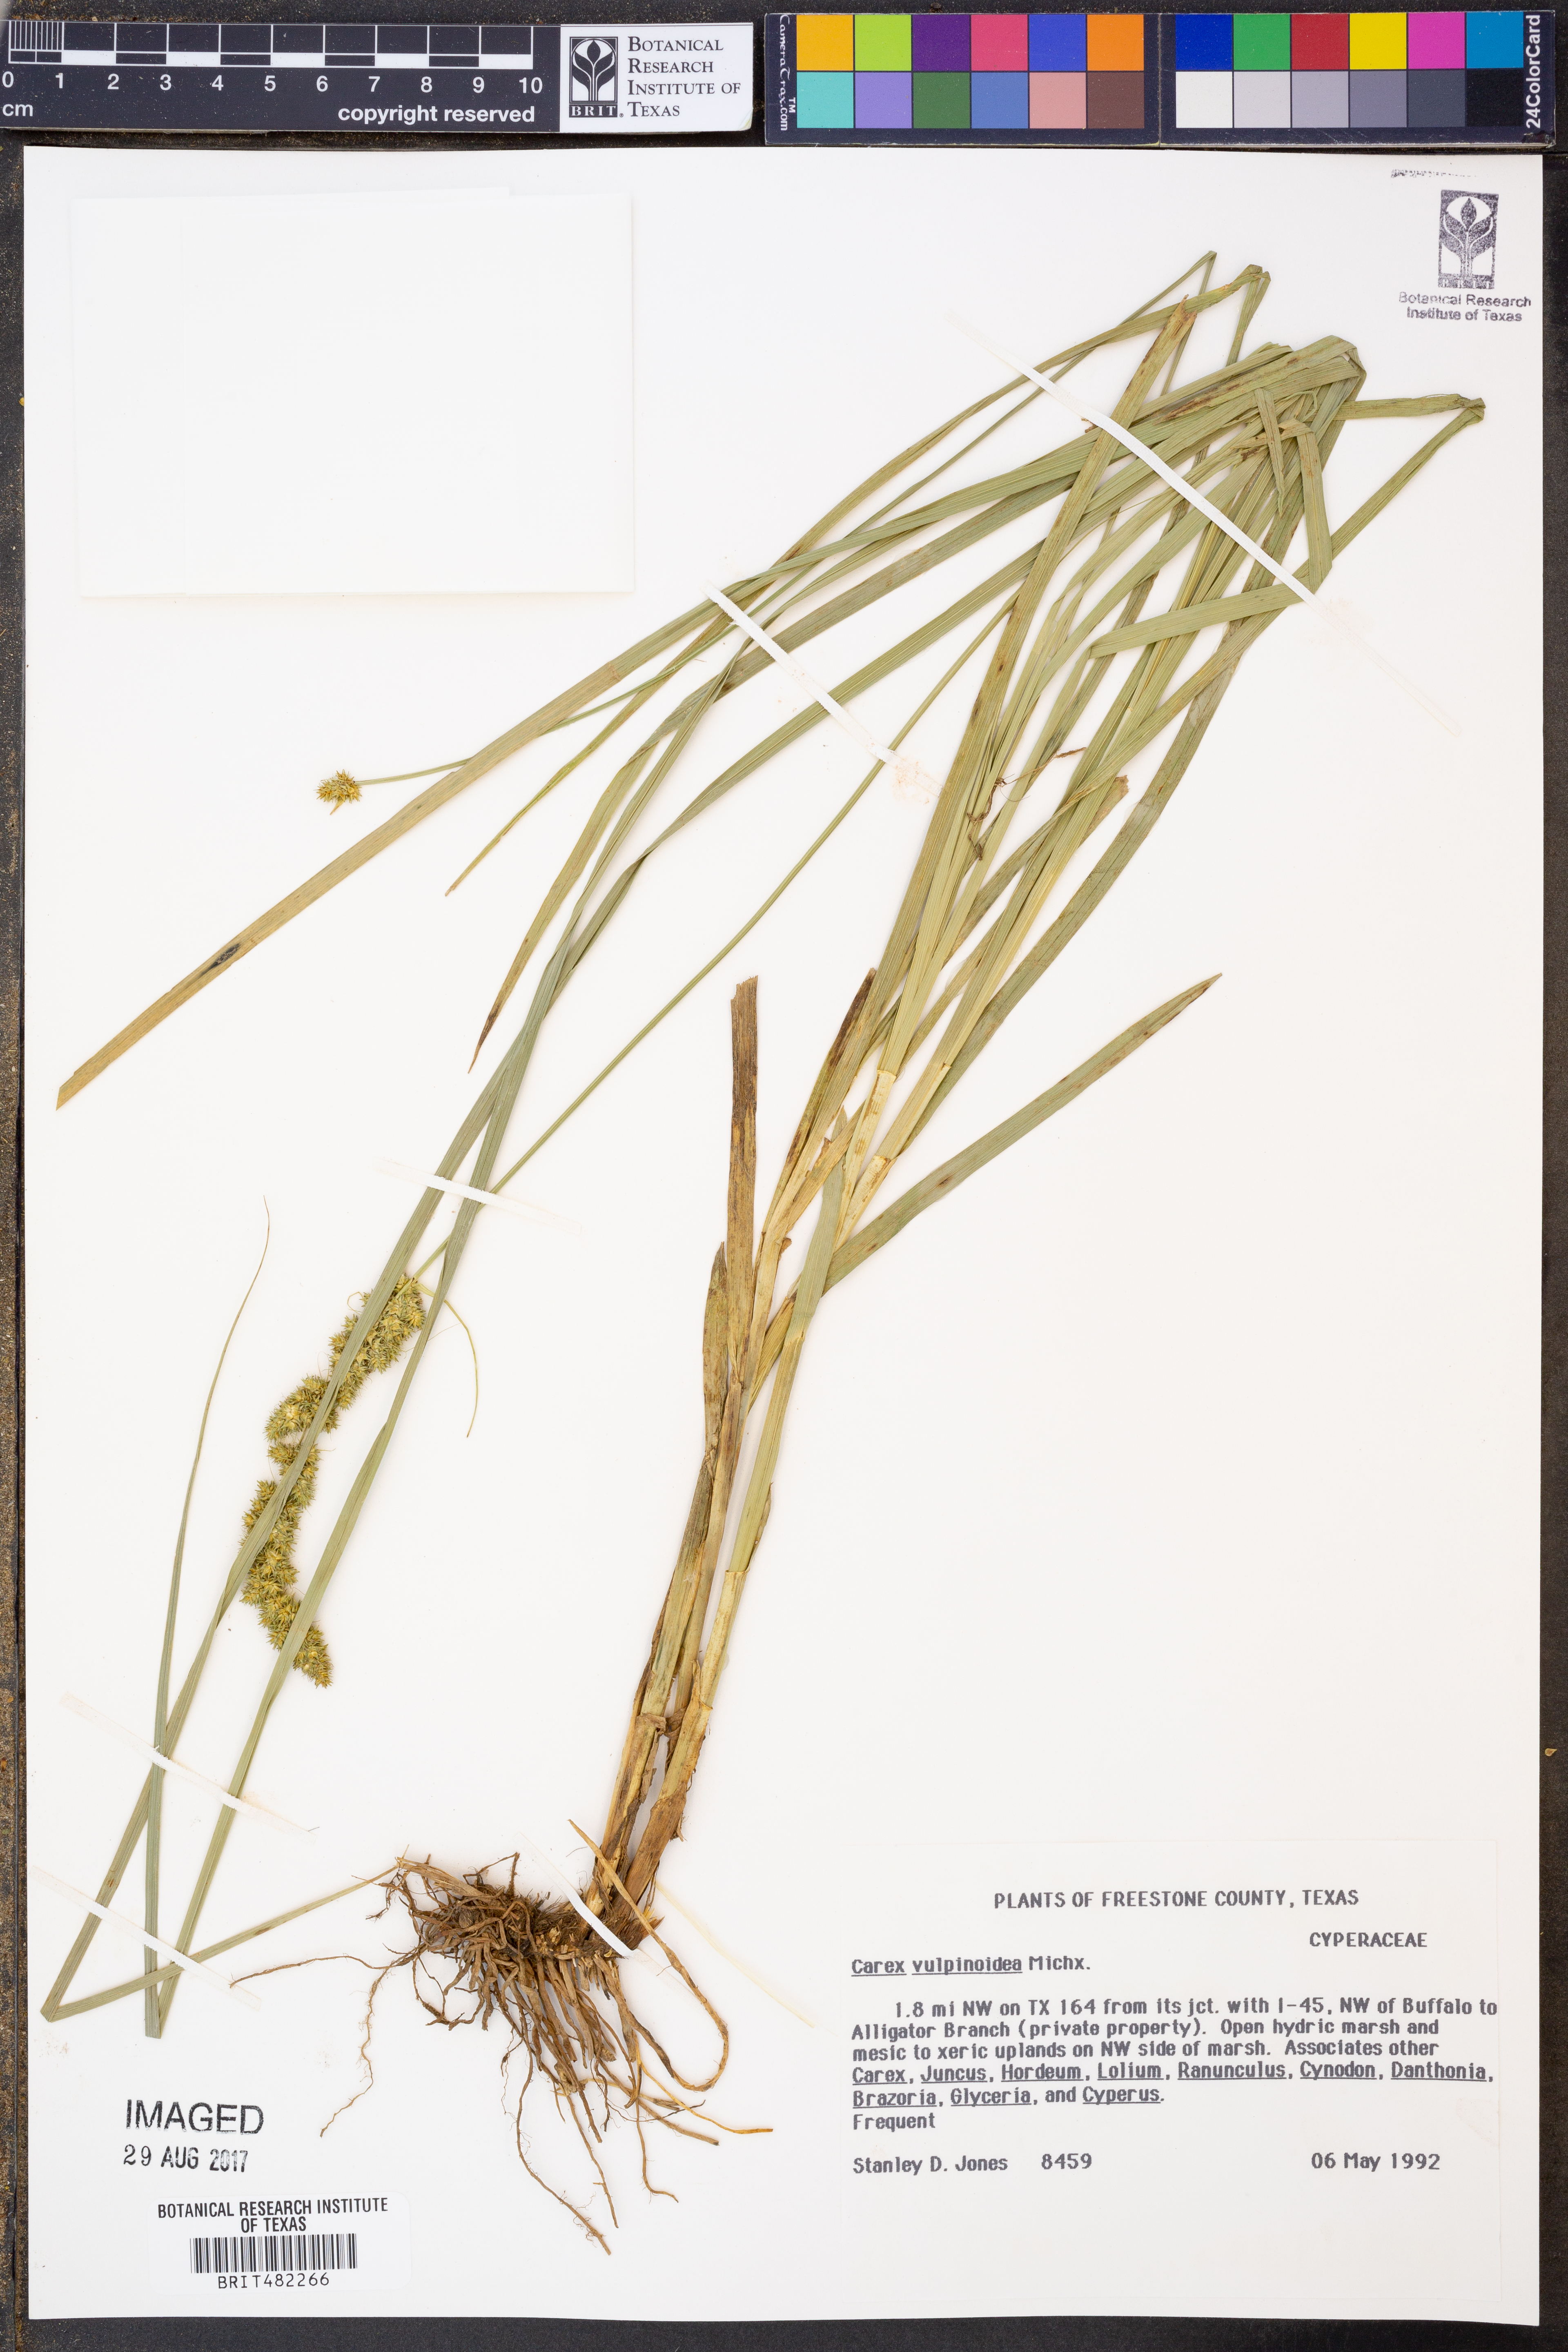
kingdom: Plantae
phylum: Tracheophyta
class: Liliopsida
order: Poales
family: Cyperaceae
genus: Carex
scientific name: Carex vulpinoidea
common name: American fox-sedge
